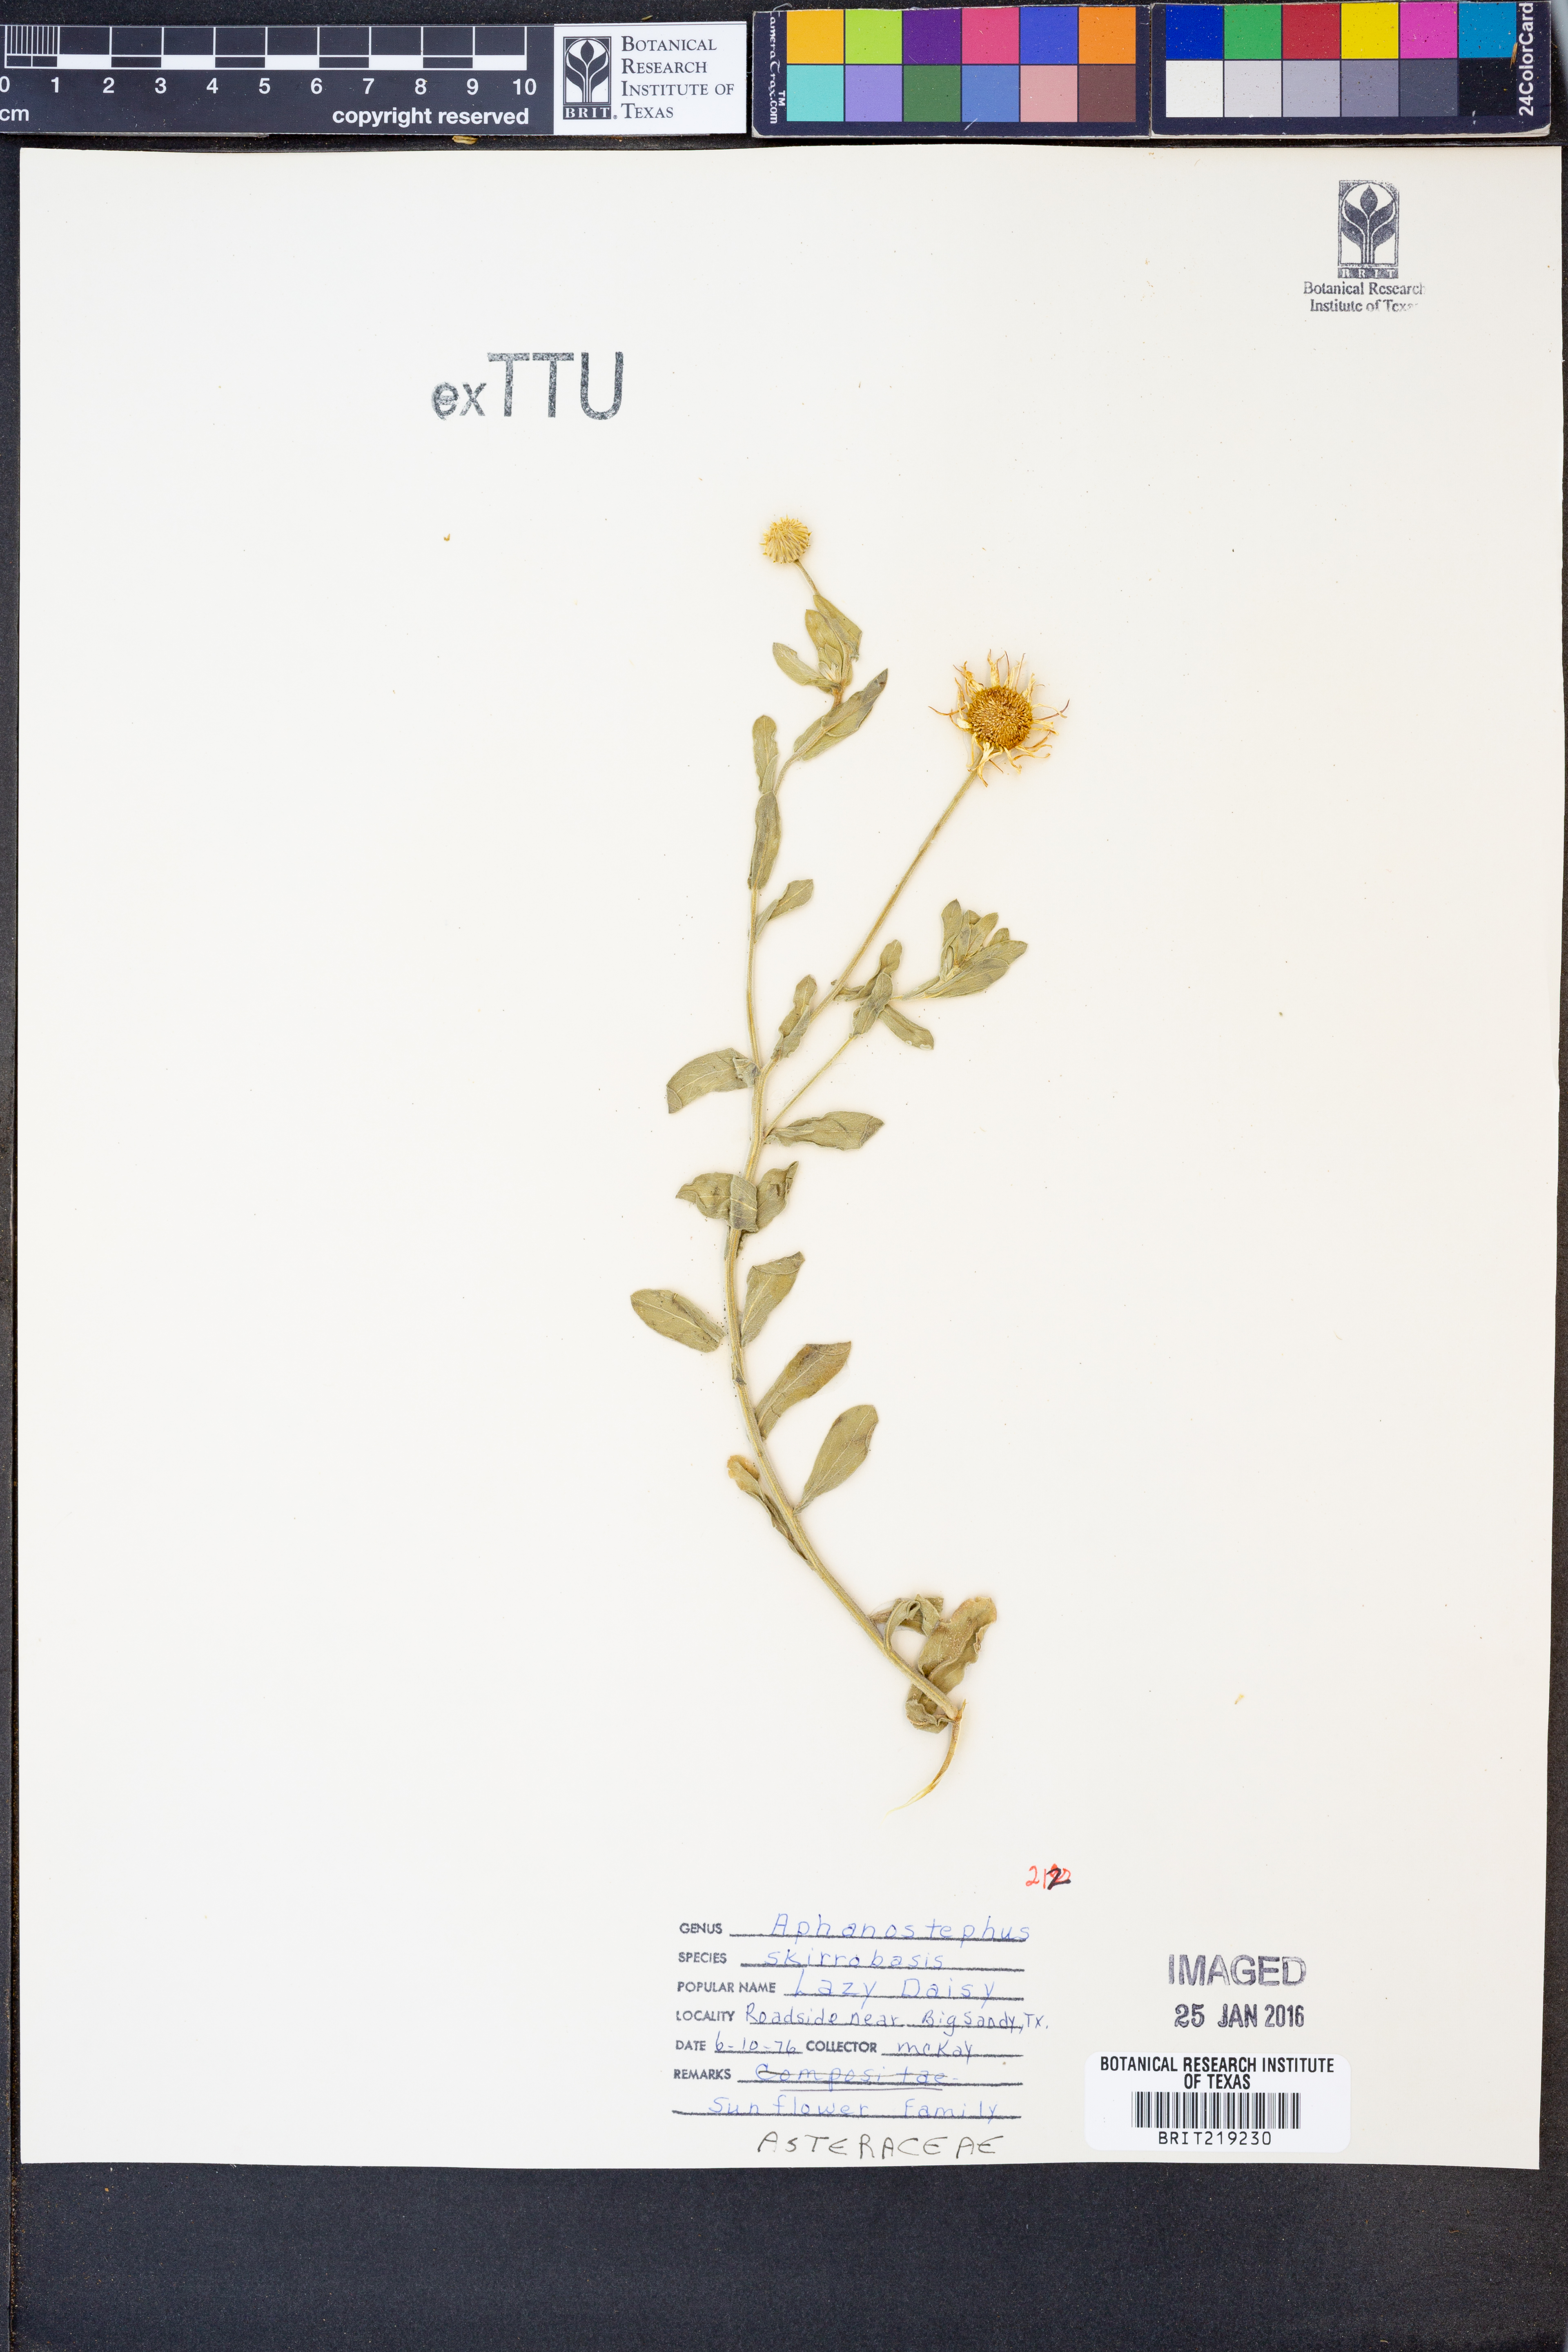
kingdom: Plantae
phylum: Tracheophyta
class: Magnoliopsida
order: Asterales
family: Asteraceae
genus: Aphanostephus
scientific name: Aphanostephus skirrhobasis
